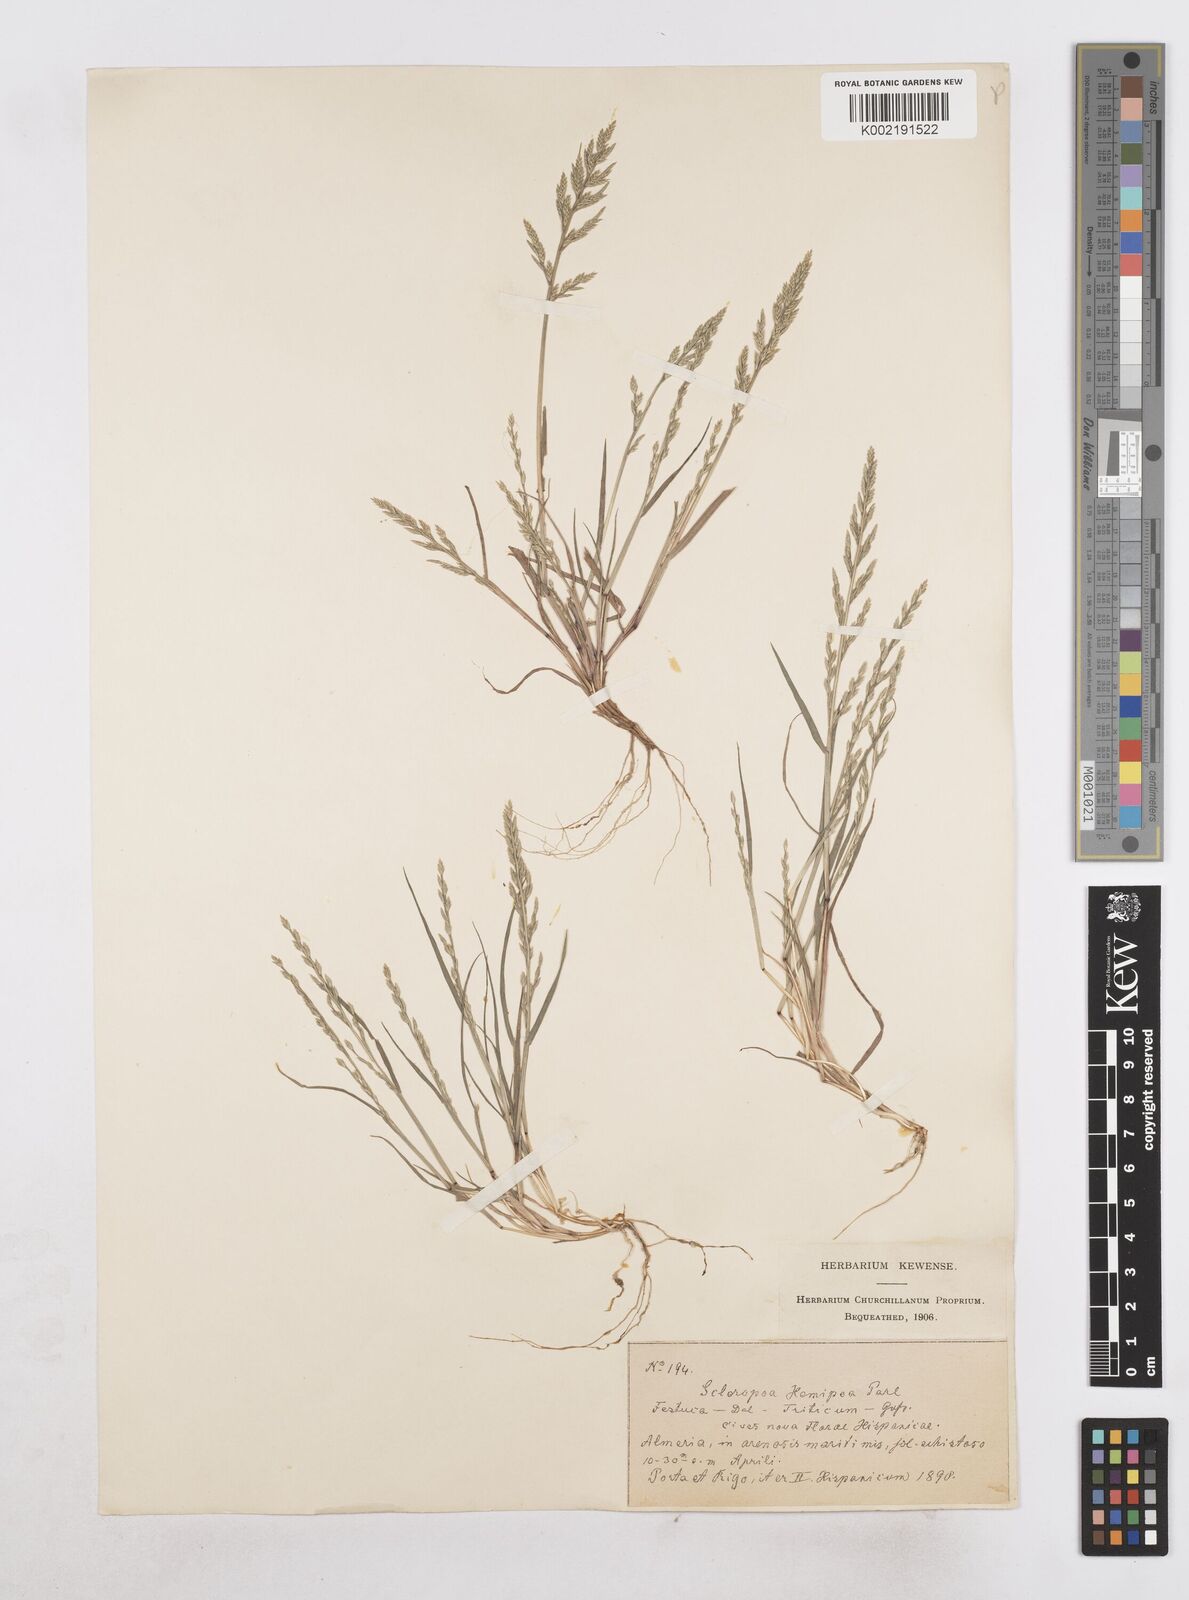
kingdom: Plantae
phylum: Tracheophyta
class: Liliopsida
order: Poales
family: Poaceae
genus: Catapodium
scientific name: Catapodium hemipoa
